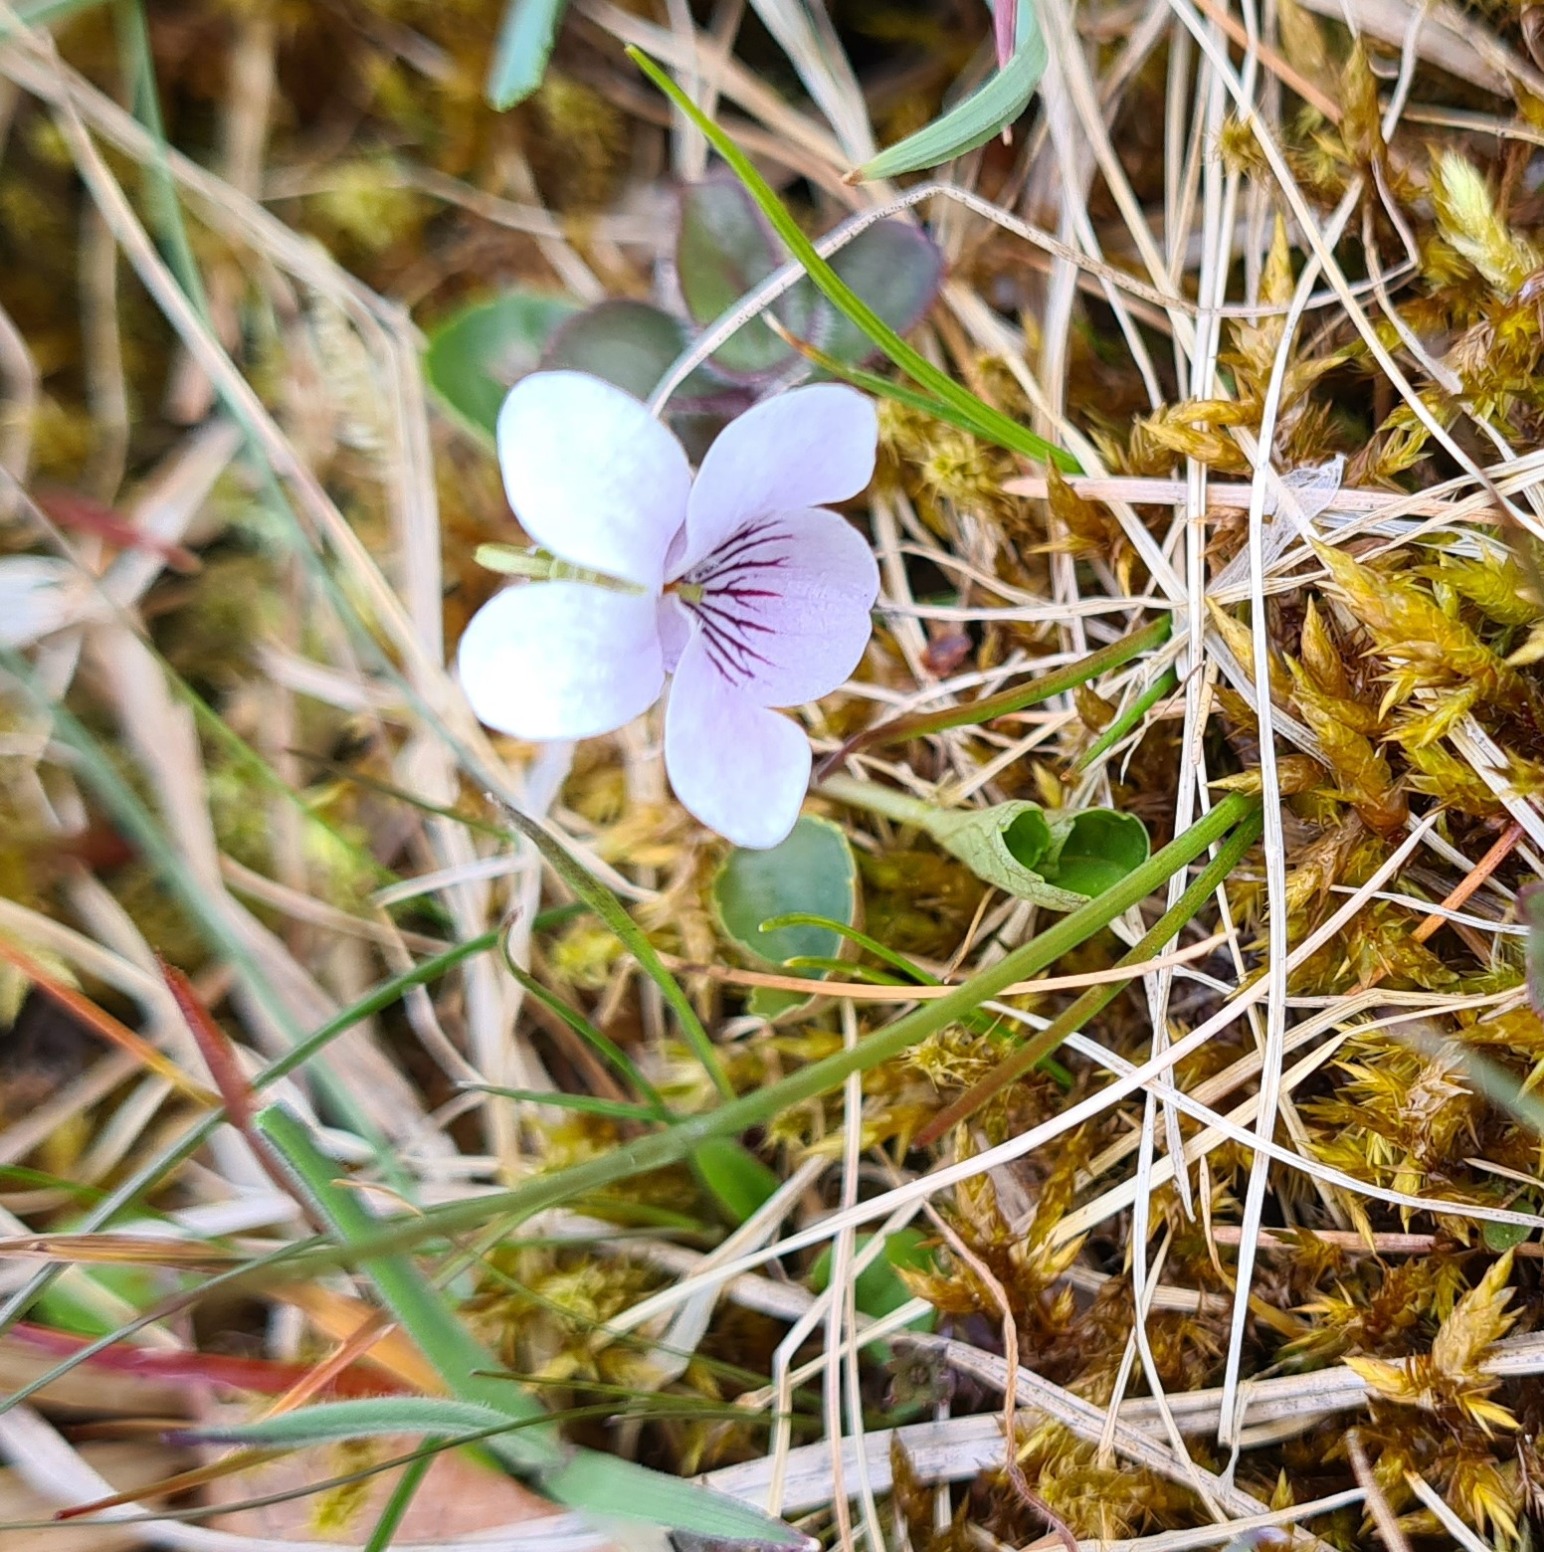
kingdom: Plantae
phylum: Tracheophyta
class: Magnoliopsida
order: Malpighiales
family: Violaceae
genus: Viola
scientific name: Viola palustris
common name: Eng-viol
